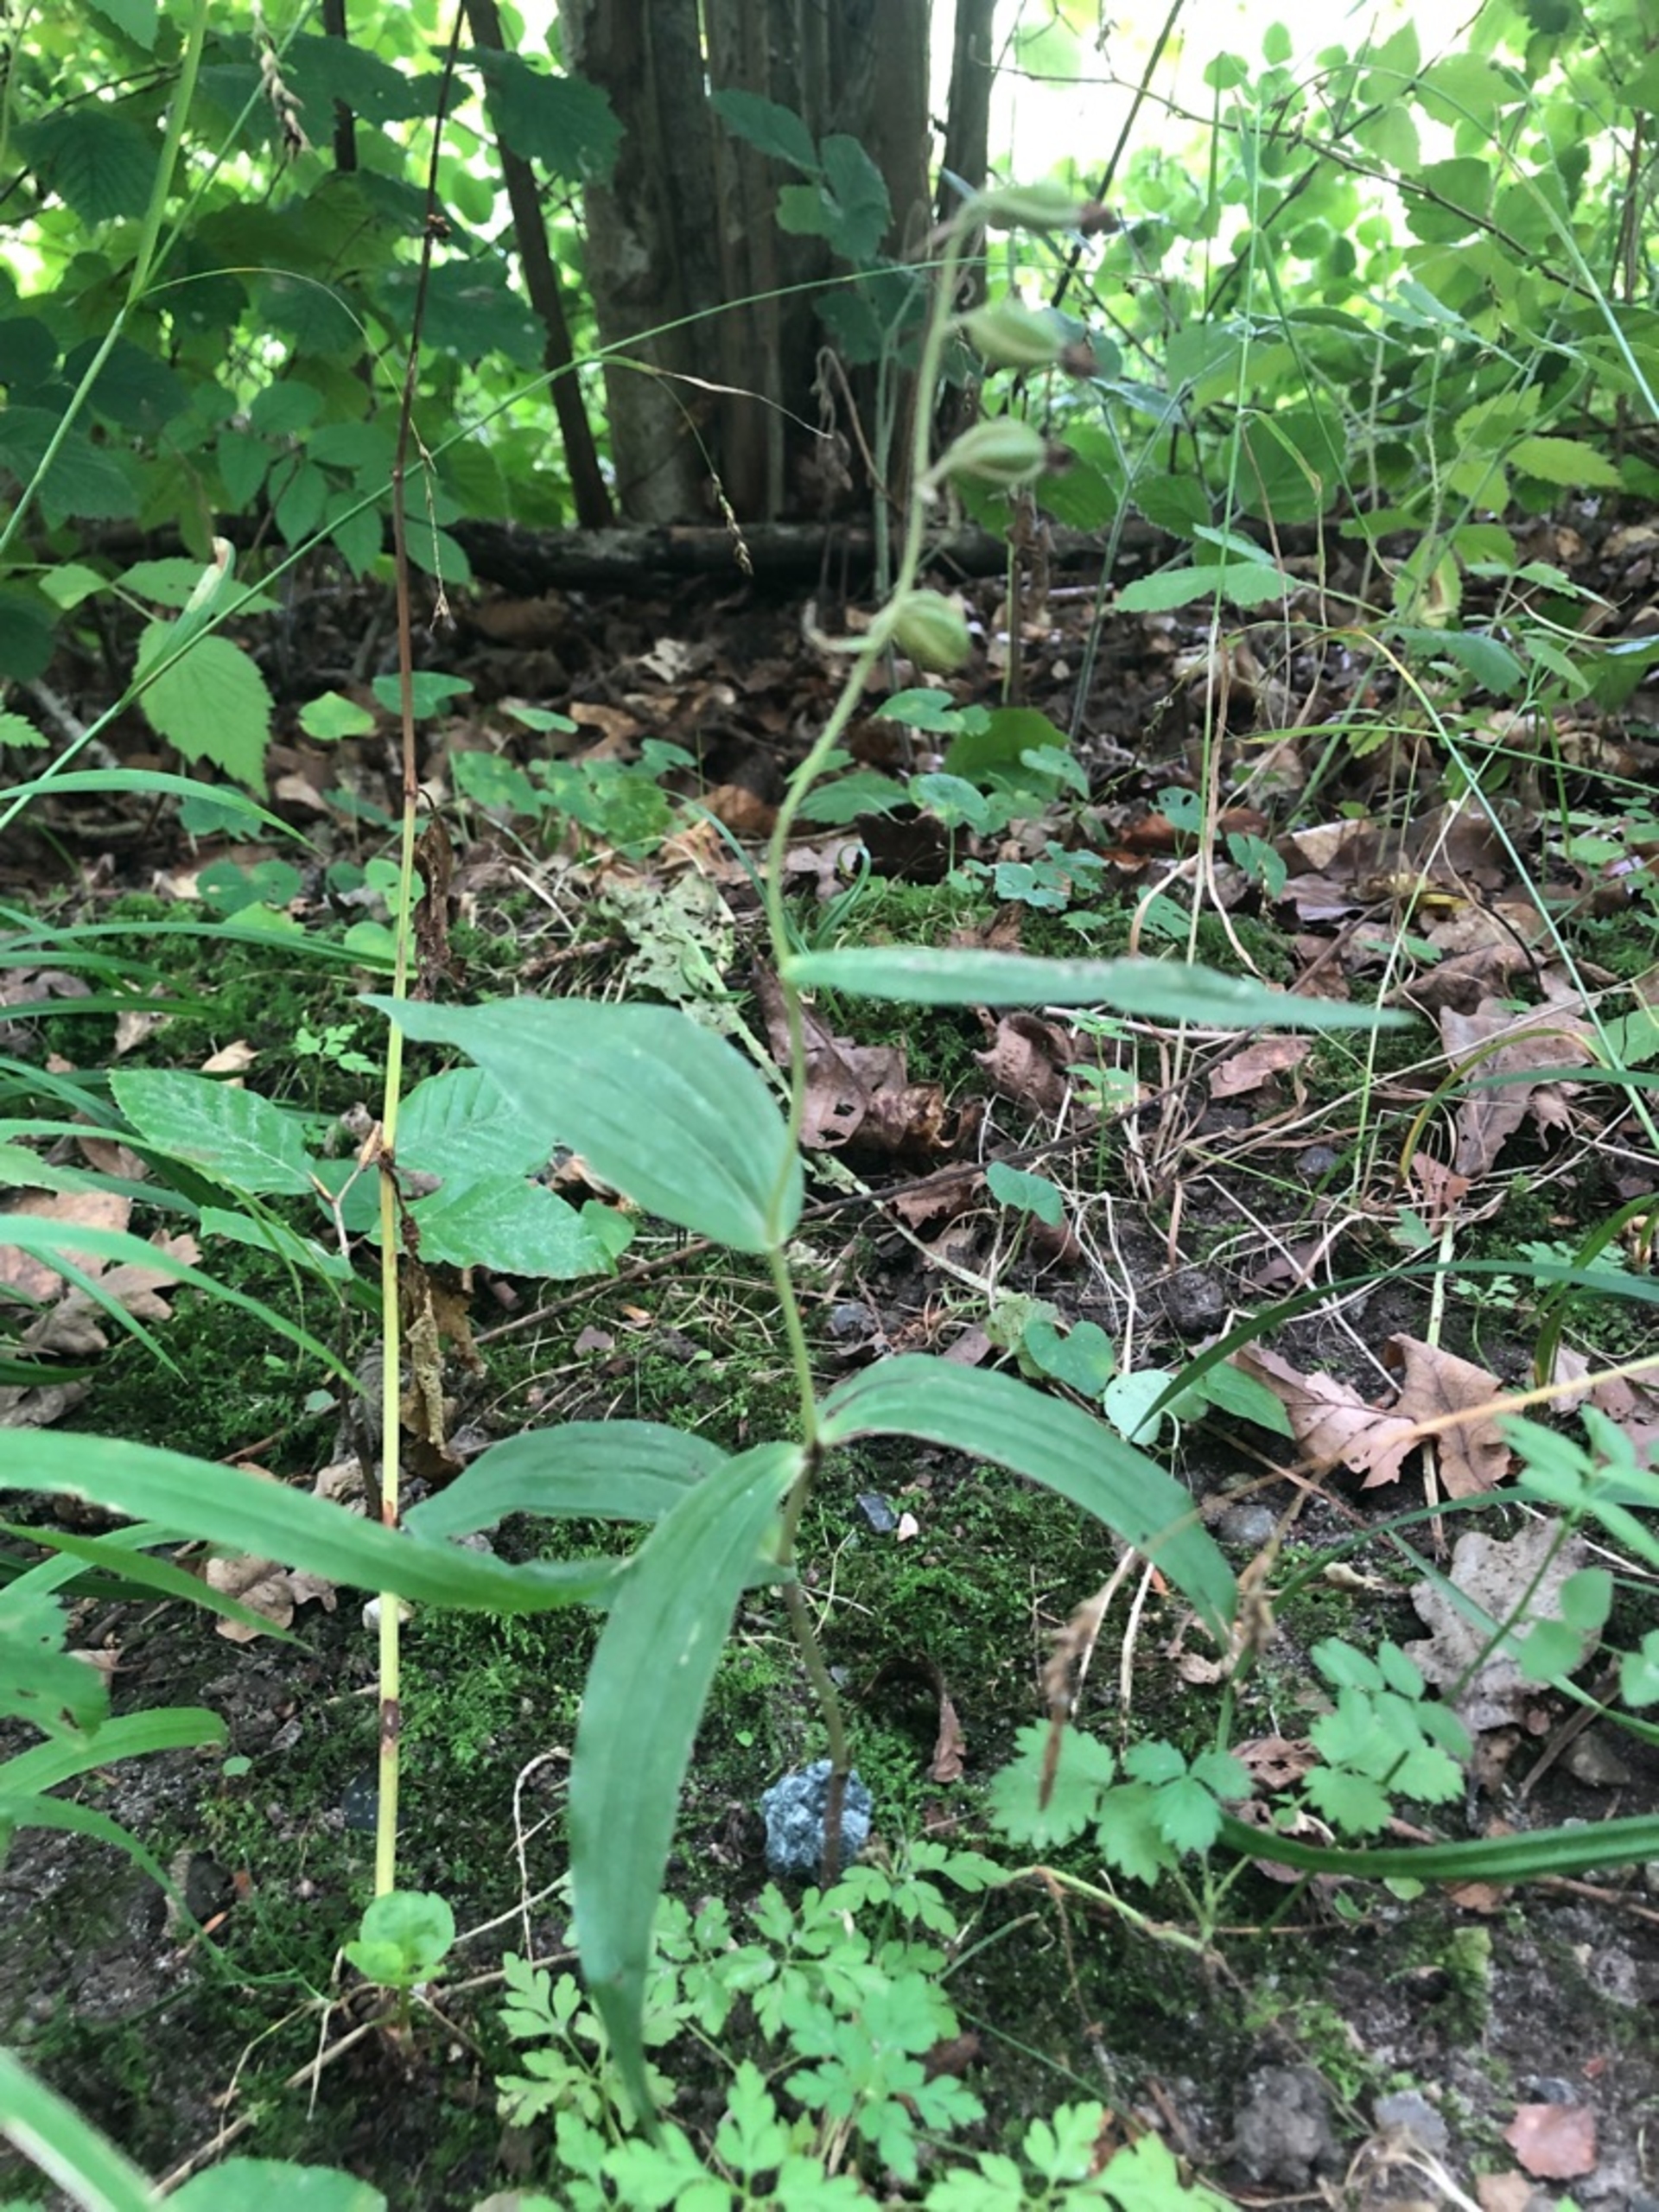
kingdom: Plantae
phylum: Tracheophyta
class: Liliopsida
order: Asparagales
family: Orchidaceae
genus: Epipactis
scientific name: Epipactis helleborine
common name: Skov-hullæbe
